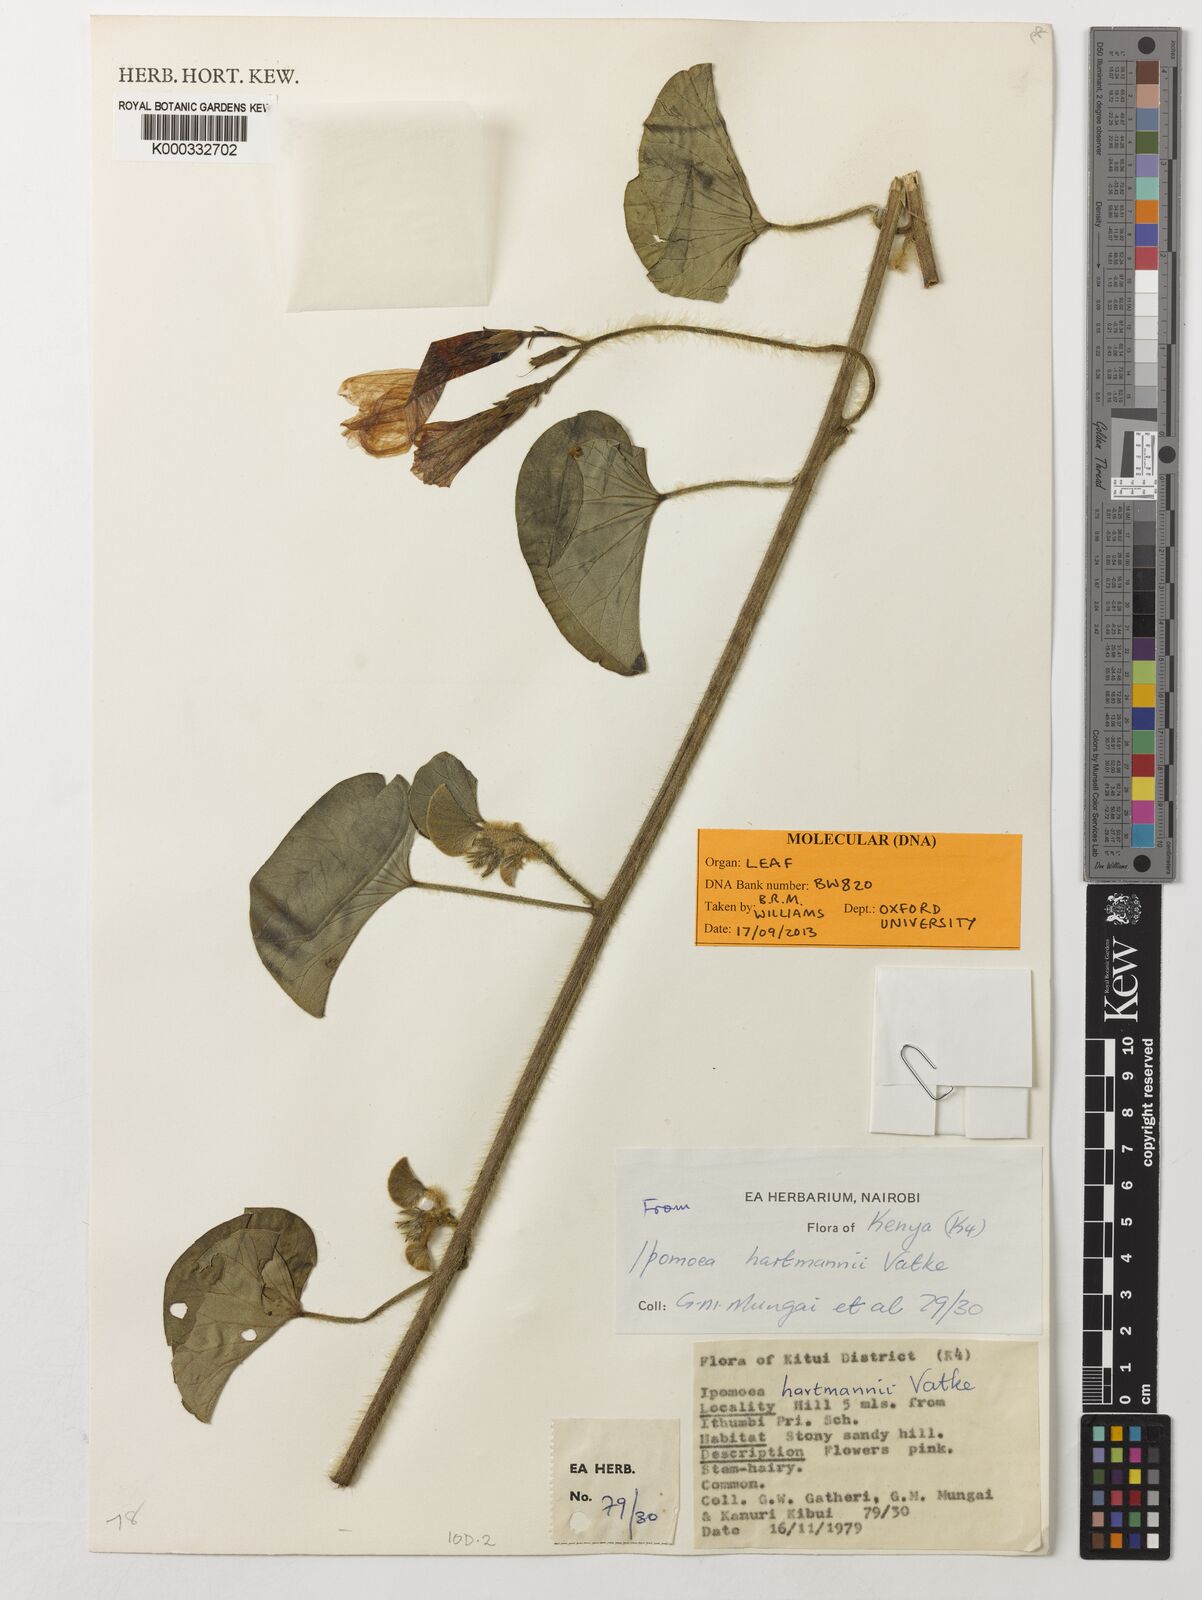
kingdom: Plantae
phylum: Tracheophyta
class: Magnoliopsida
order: Solanales
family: Convolvulaceae
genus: Ipomoea
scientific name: Ipomoea hartmannii
